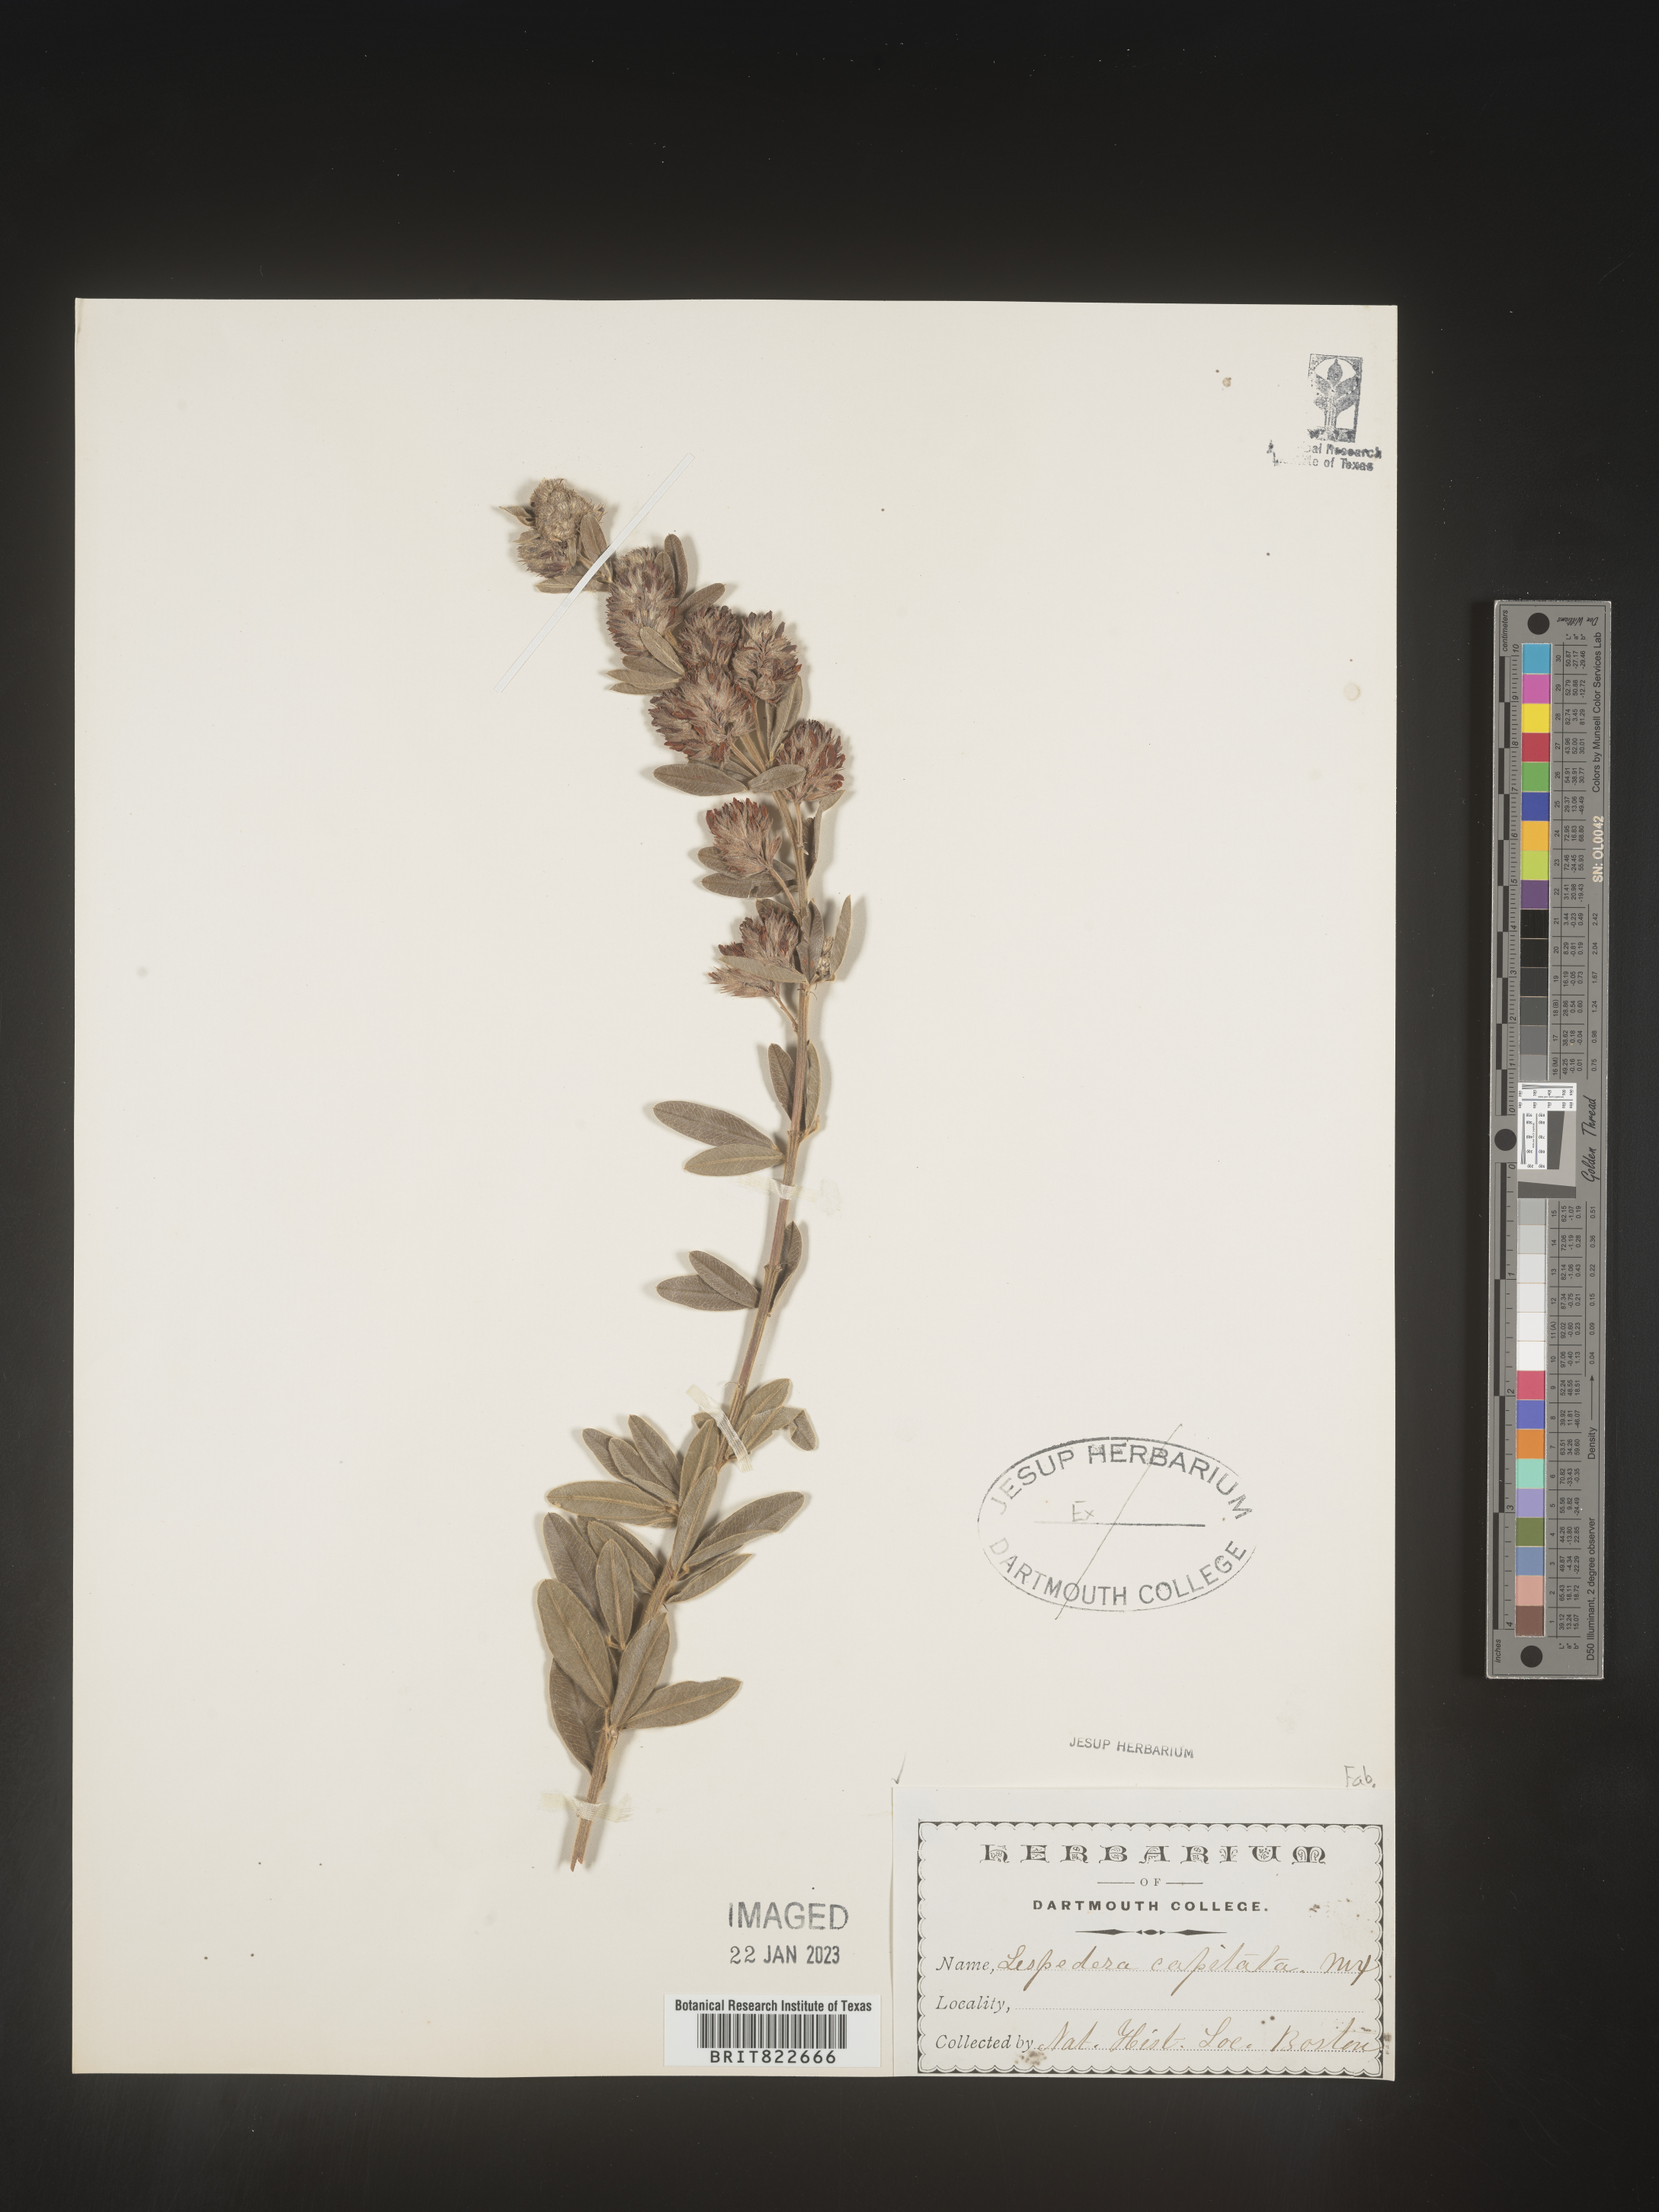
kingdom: Plantae
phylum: Tracheophyta
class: Magnoliopsida
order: Fabales
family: Fabaceae
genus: Lespedeza
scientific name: Lespedeza capitata
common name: Dusty clover
